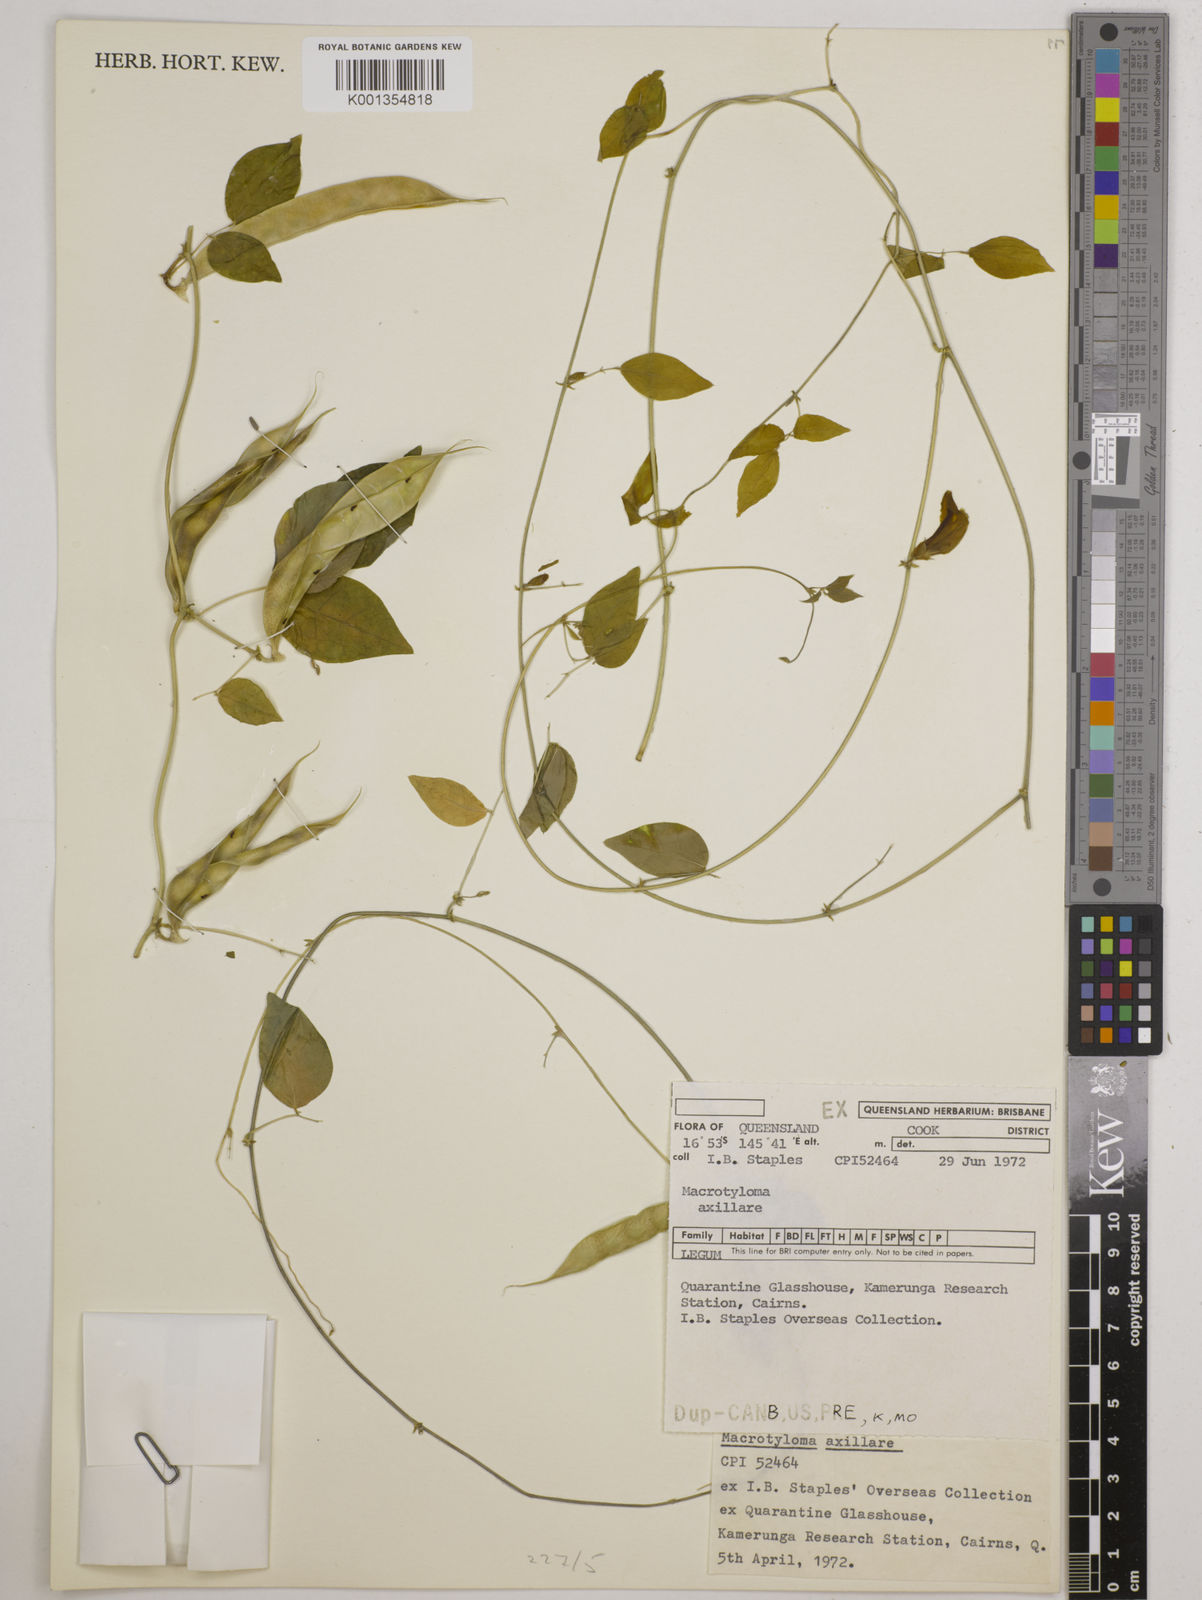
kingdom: Plantae
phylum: Tracheophyta
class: Magnoliopsida
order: Fabales
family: Fabaceae
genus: Macrotyloma
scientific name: Macrotyloma axillare
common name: Perennial horsegram
